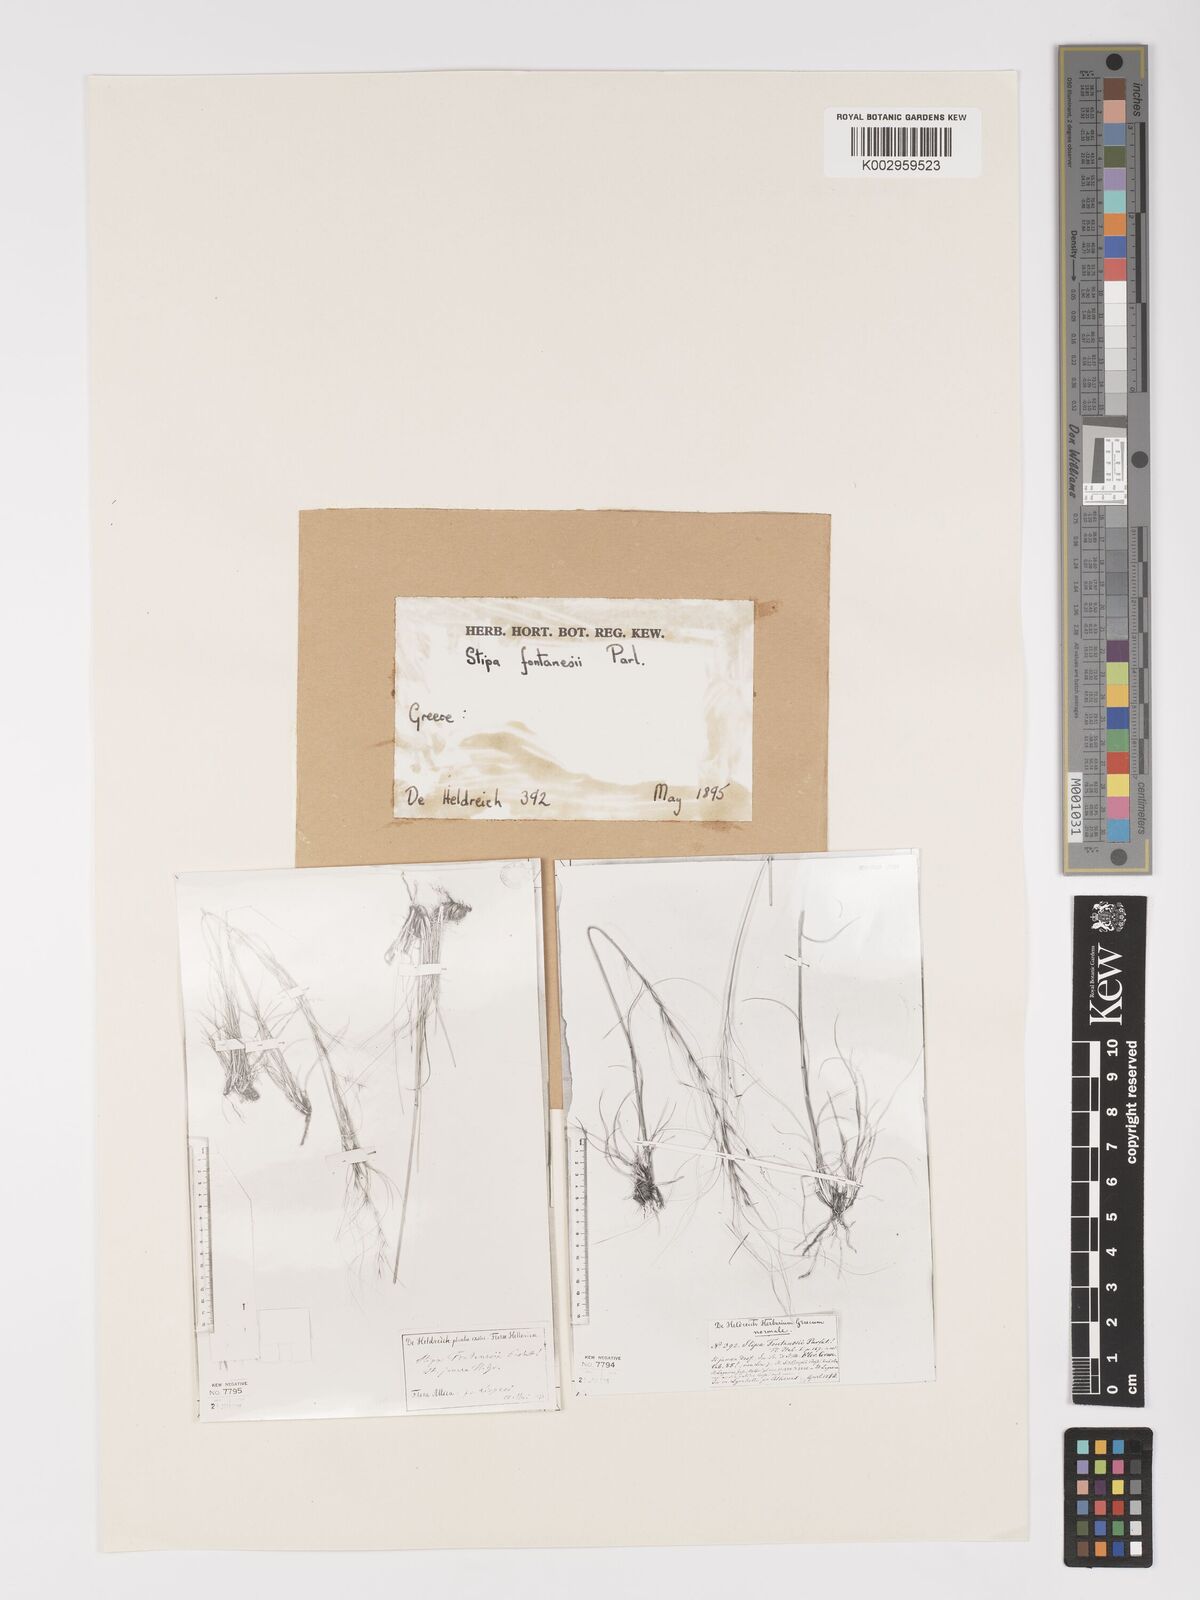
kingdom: Plantae
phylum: Tracheophyta
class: Liliopsida
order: Poales
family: Poaceae
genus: Stipa
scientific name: Stipa holosericea
